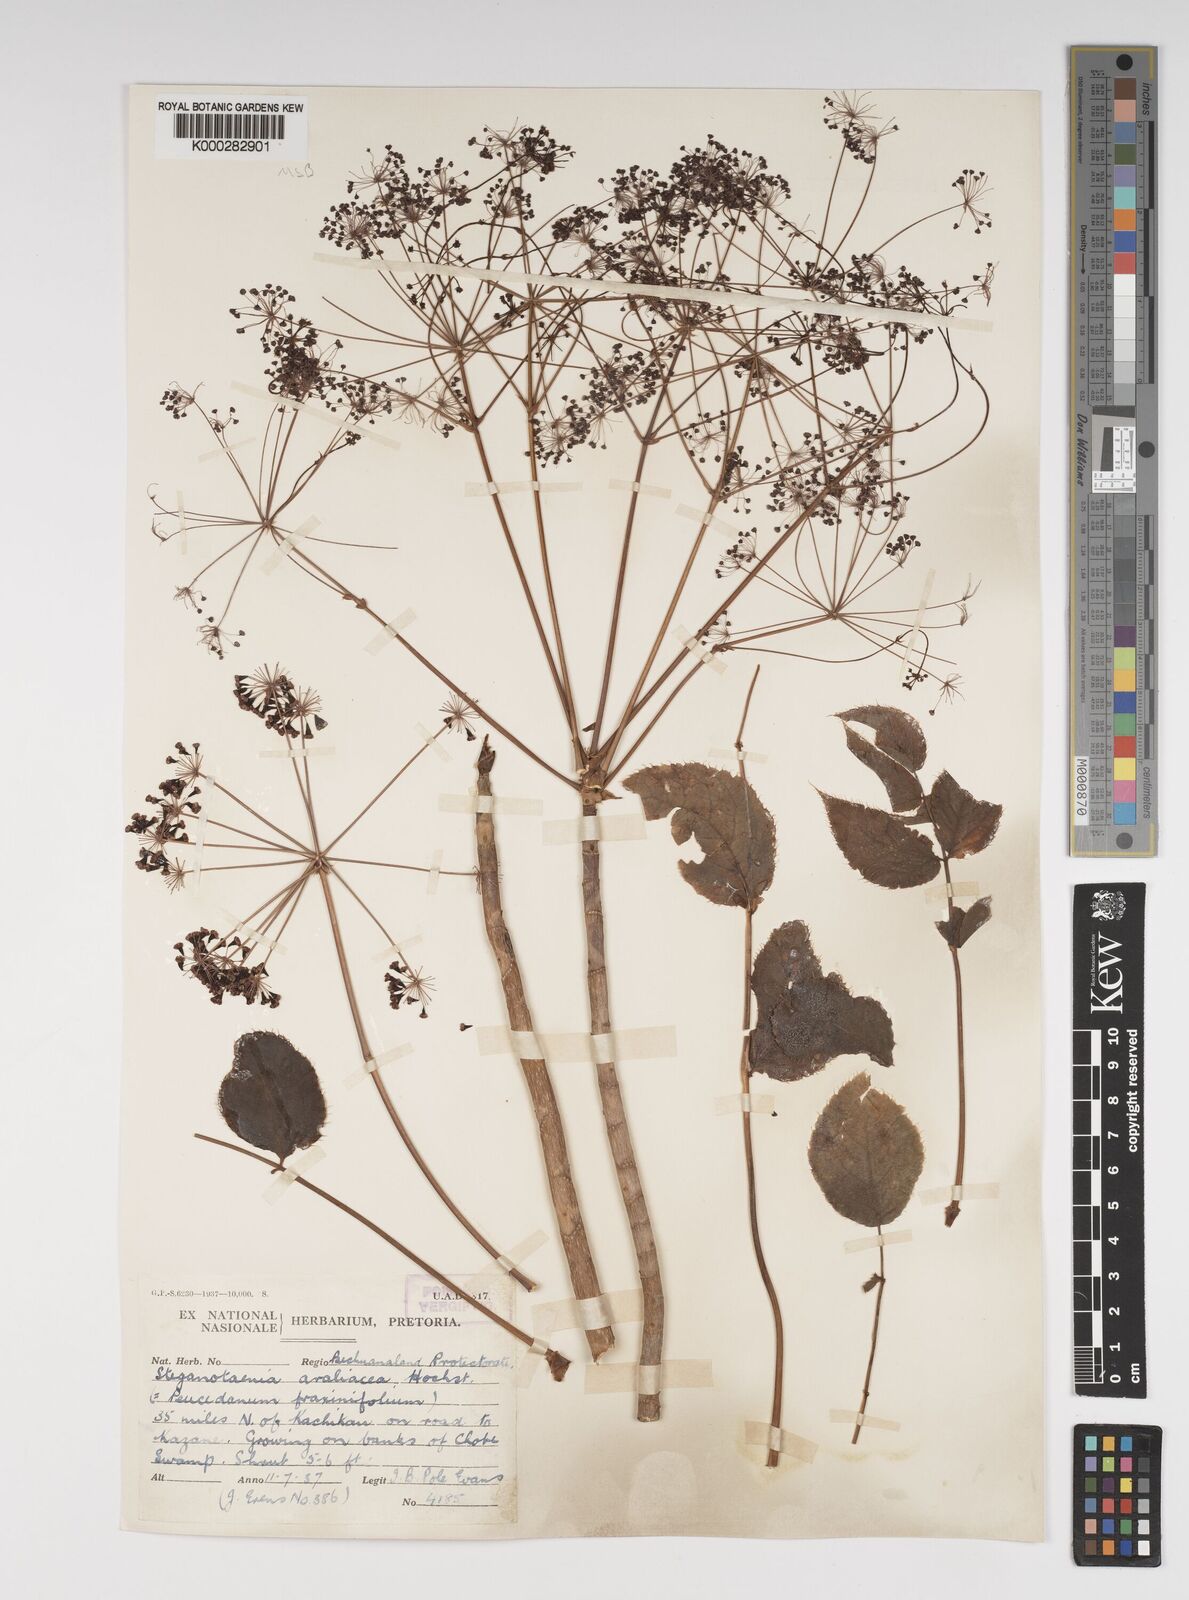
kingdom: Plantae
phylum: Tracheophyta
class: Magnoliopsida
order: Apiales
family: Apiaceae
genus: Steganotaenia
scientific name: Steganotaenia araliacea
